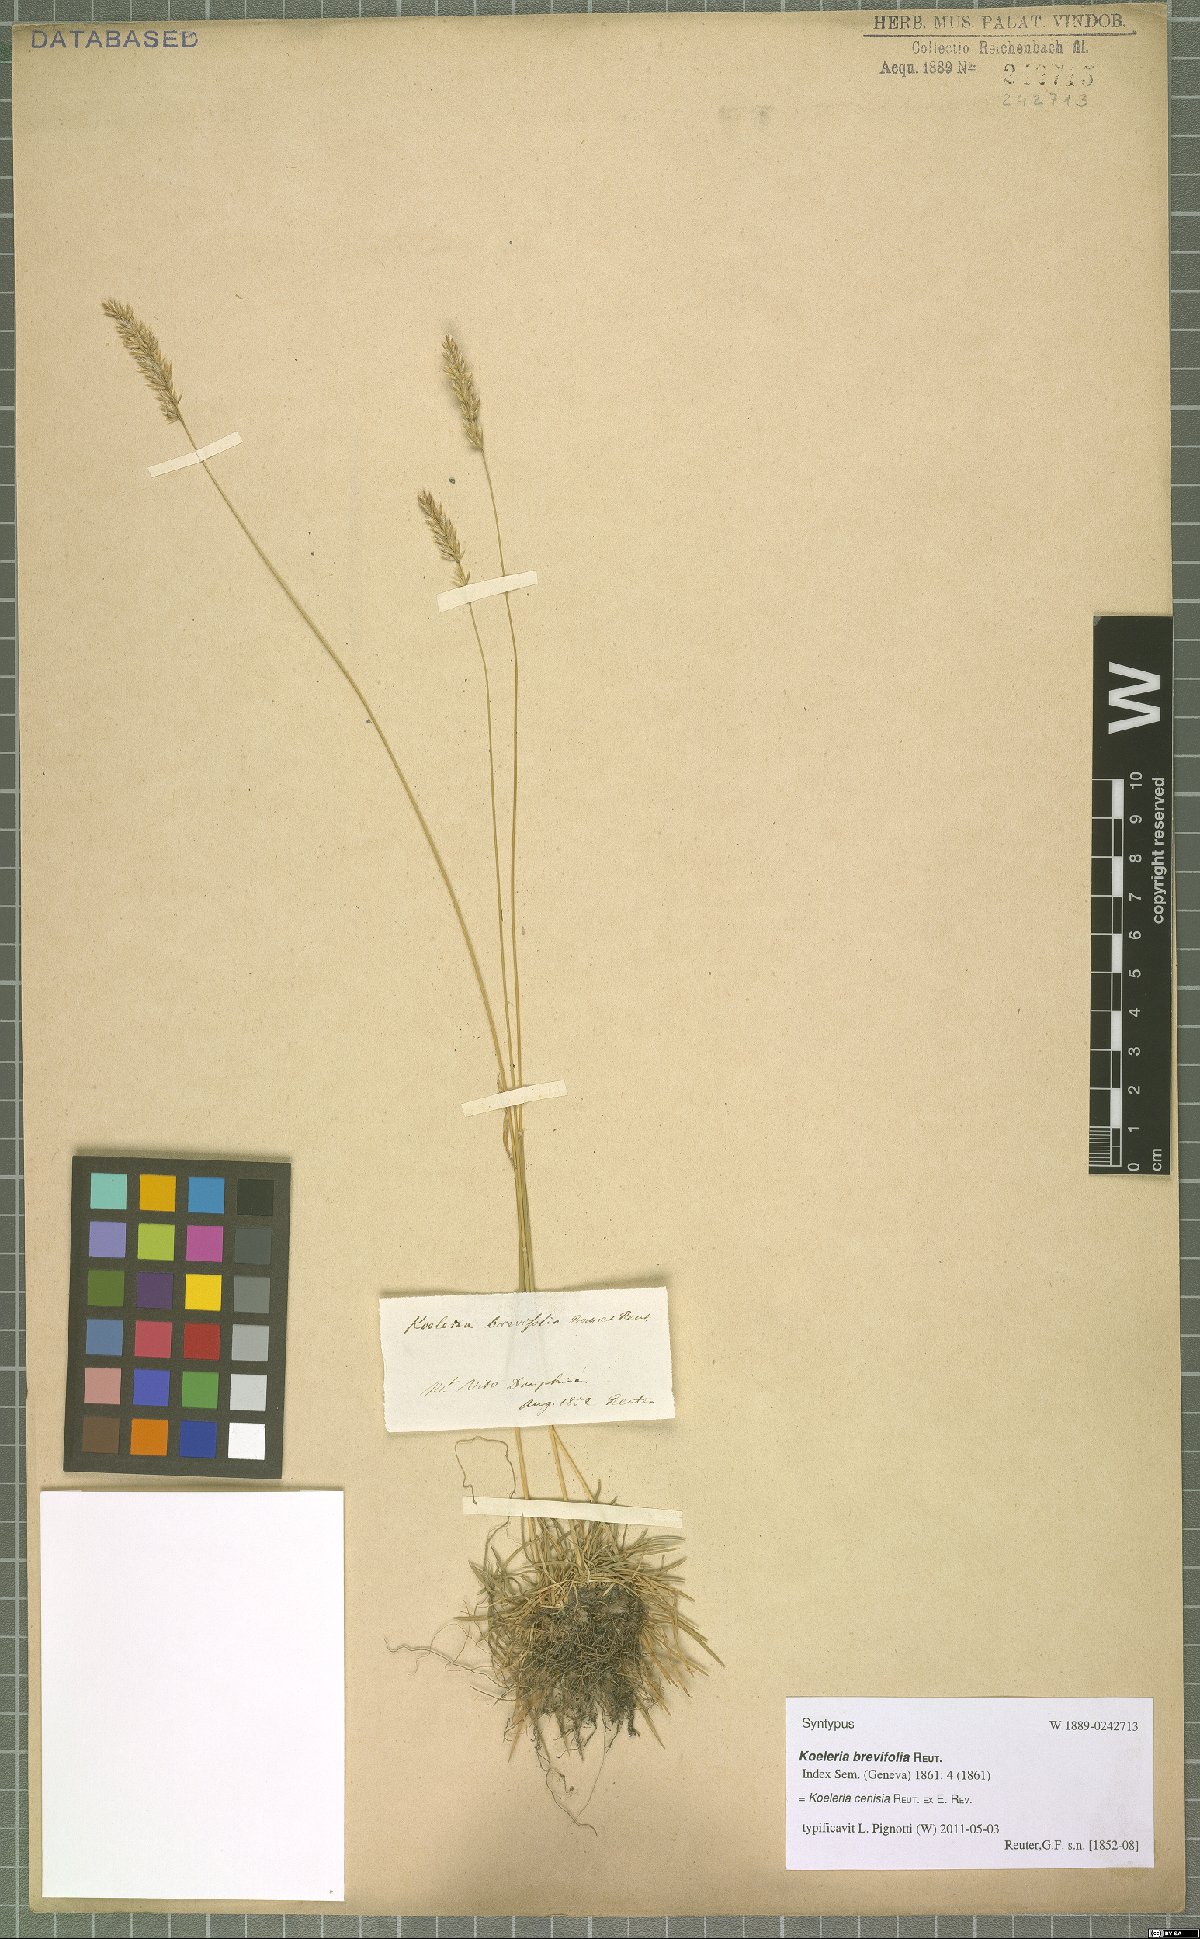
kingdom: Plantae
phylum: Tracheophyta
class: Liliopsida
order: Poales
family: Poaceae
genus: Koeleria
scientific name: Koeleria cenisia
